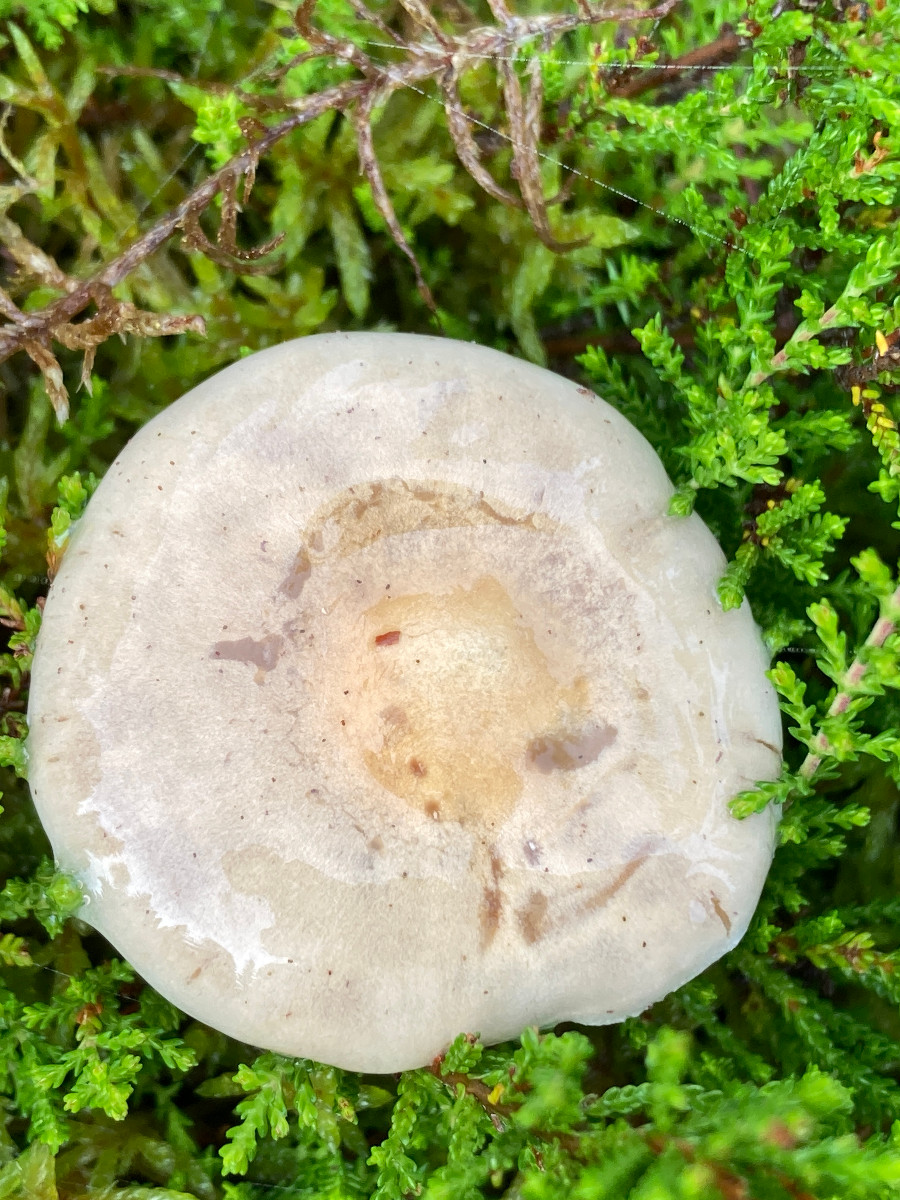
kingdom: Fungi
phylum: Basidiomycota
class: Agaricomycetes
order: Agaricales
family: Hymenogastraceae
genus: Hebeloma
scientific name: Hebeloma
